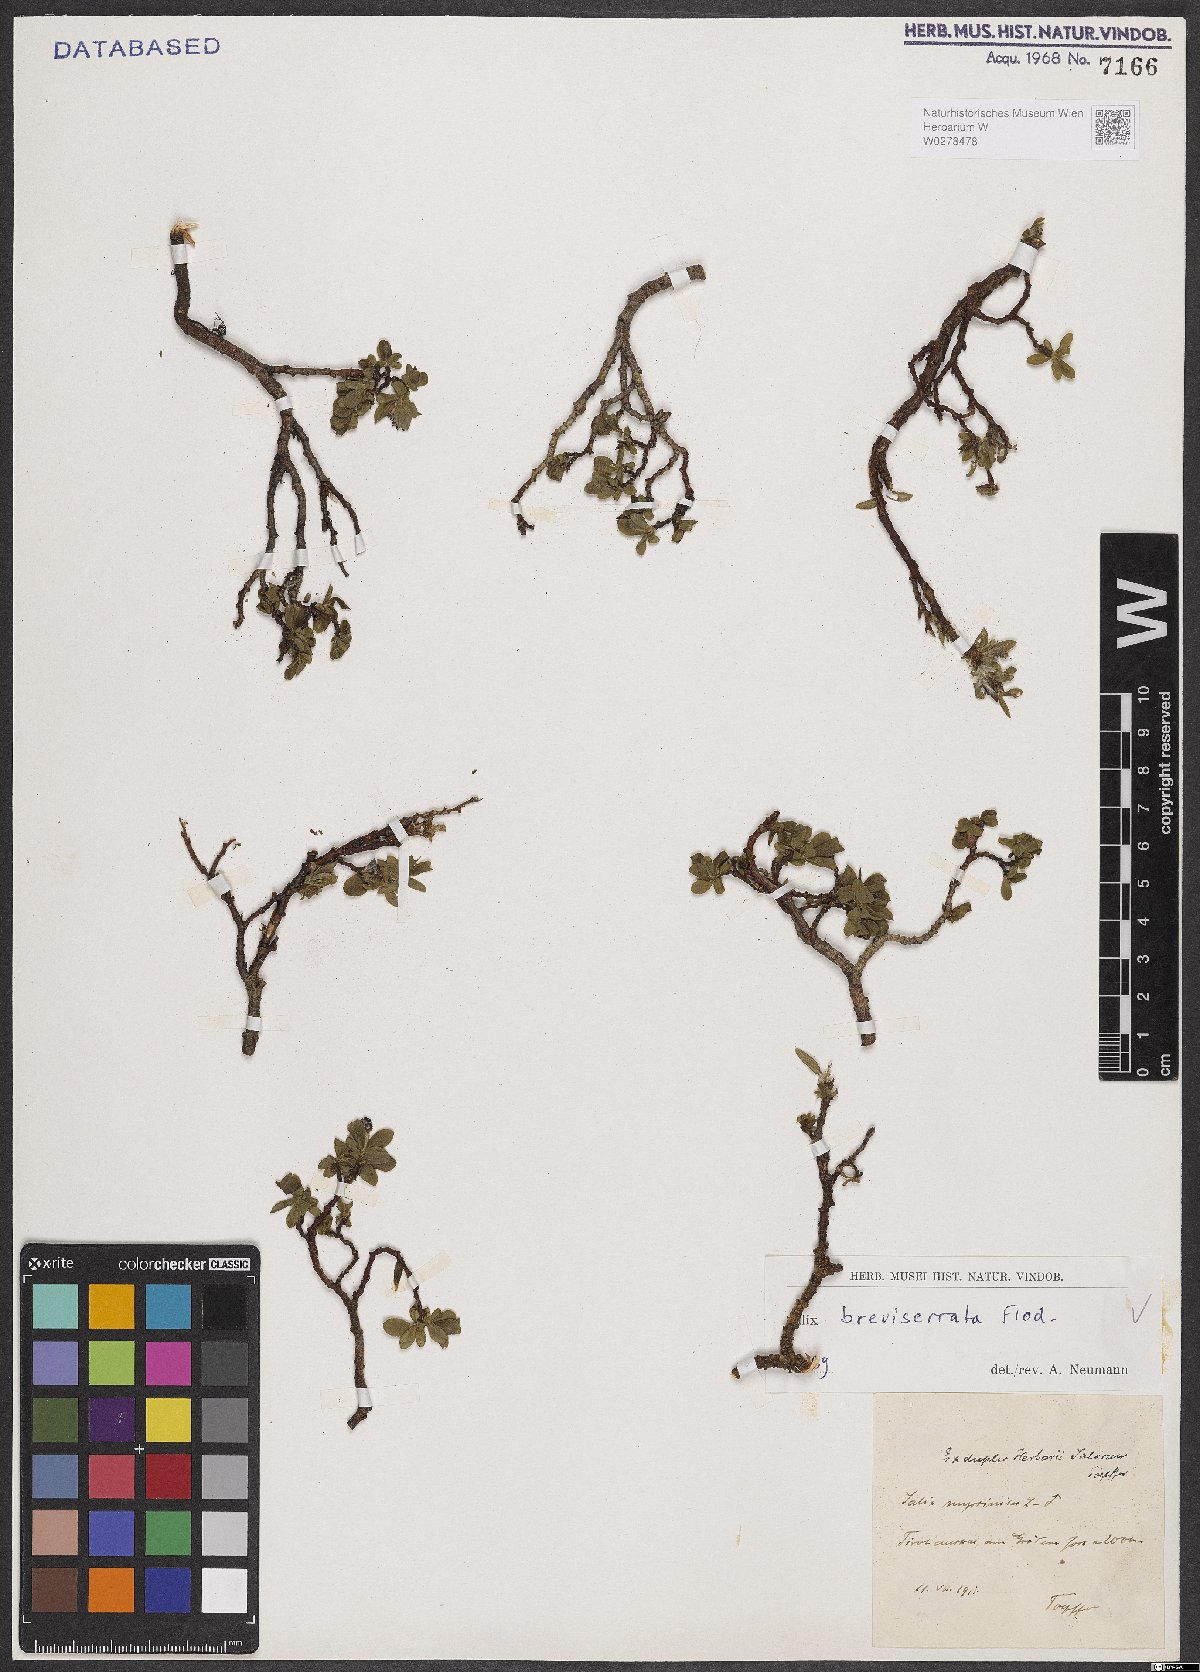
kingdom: Plantae
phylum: Tracheophyta
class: Magnoliopsida
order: Malpighiales
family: Salicaceae
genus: Salix
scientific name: Salix breviserrata
